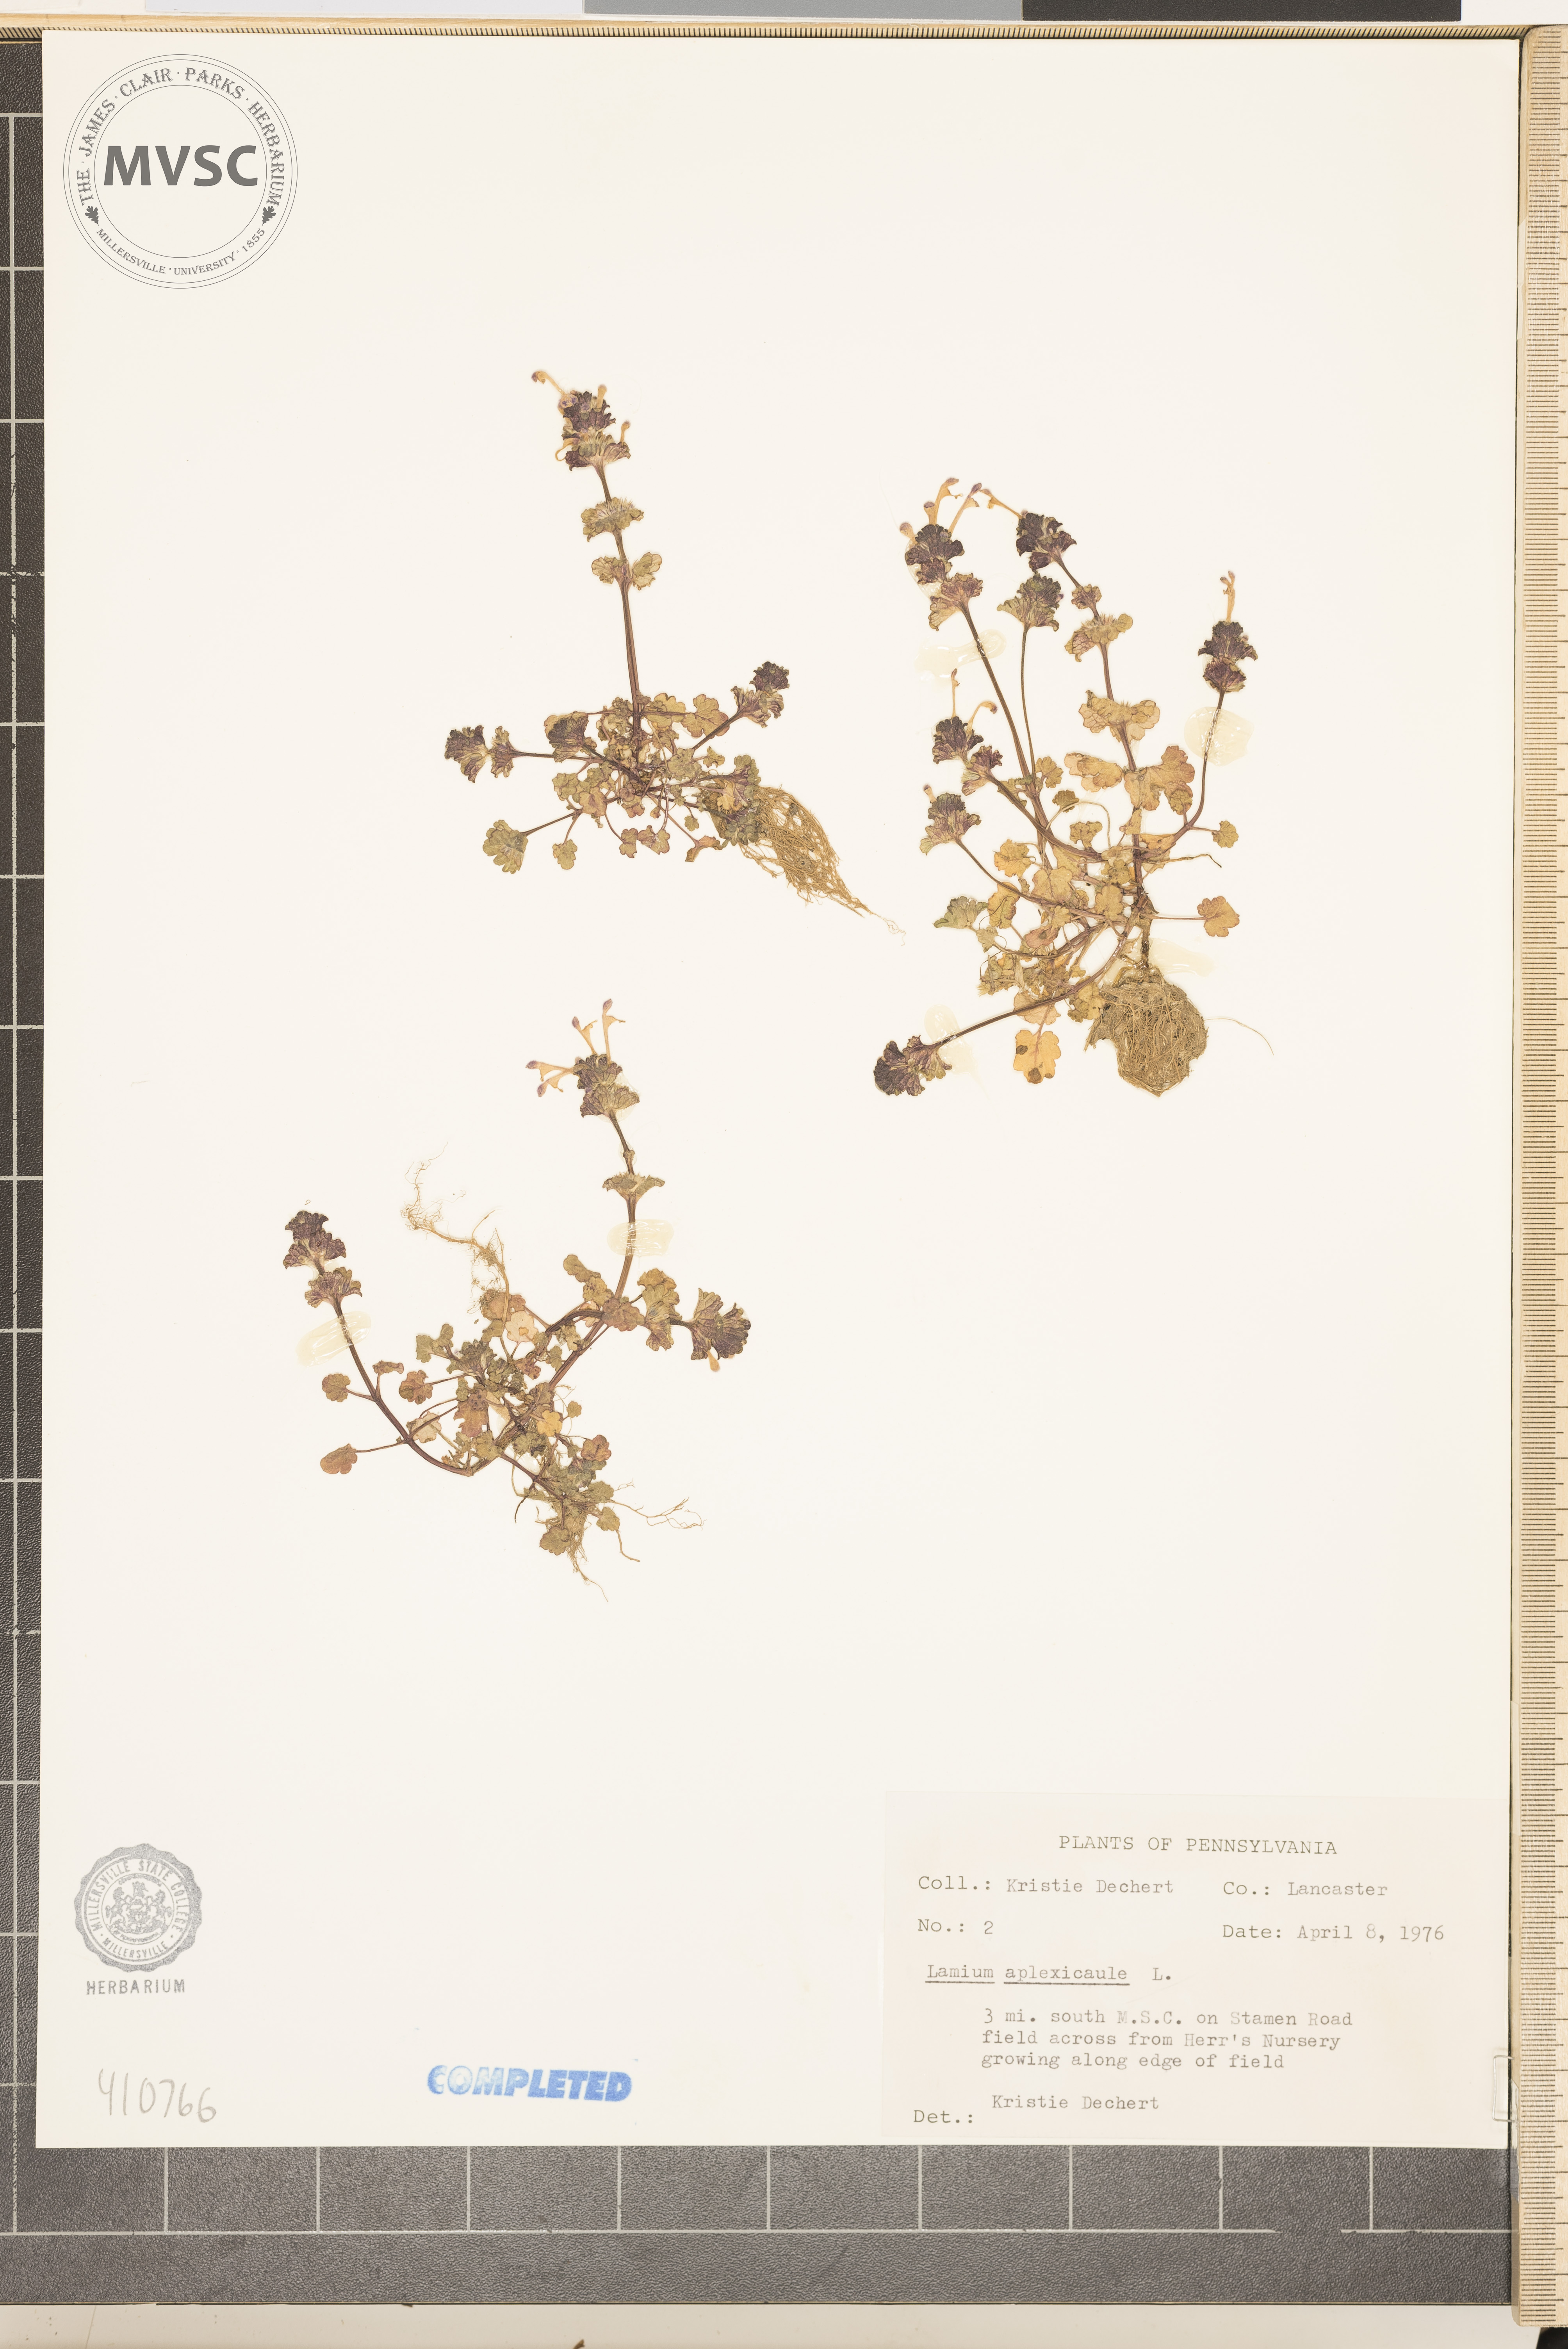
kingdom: Plantae
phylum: Tracheophyta
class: Magnoliopsida
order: Lamiales
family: Lamiaceae
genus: Lamium
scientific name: Lamium amplexicaule
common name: henbit
